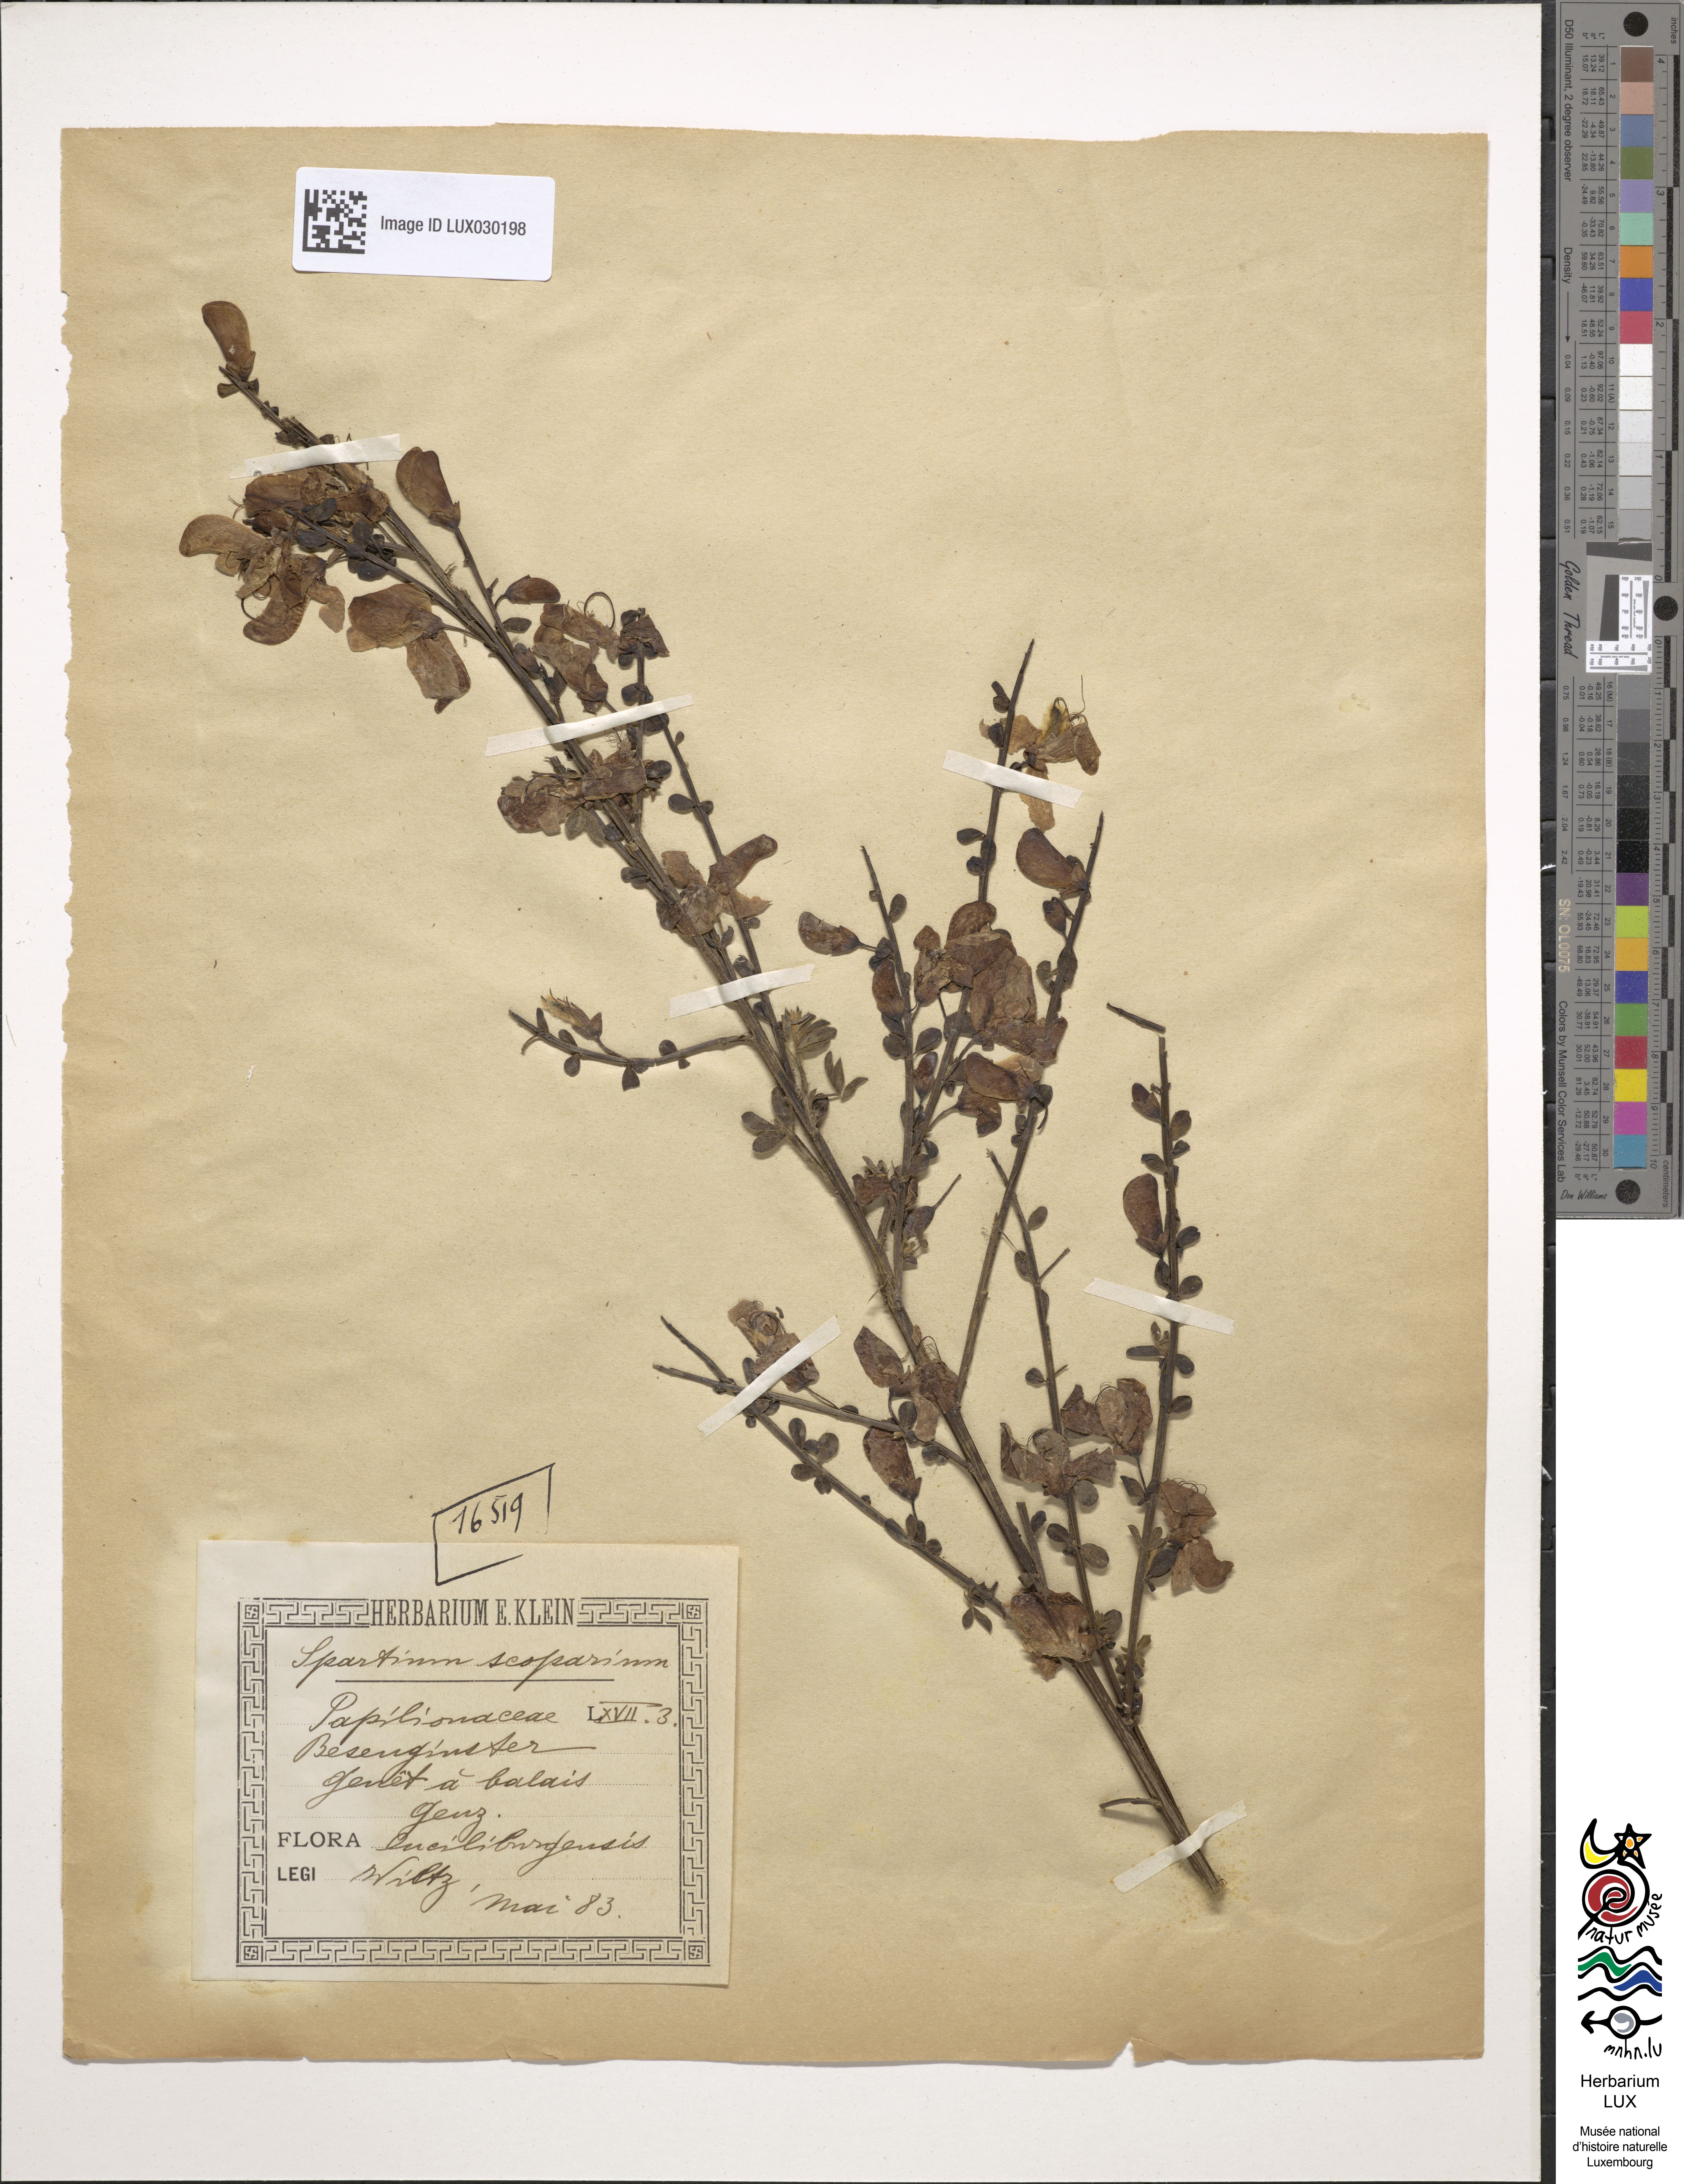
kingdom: Plantae
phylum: Tracheophyta
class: Magnoliopsida
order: Fabales
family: Fabaceae
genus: Cytisus
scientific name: Cytisus scoparius
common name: Scotch broom
